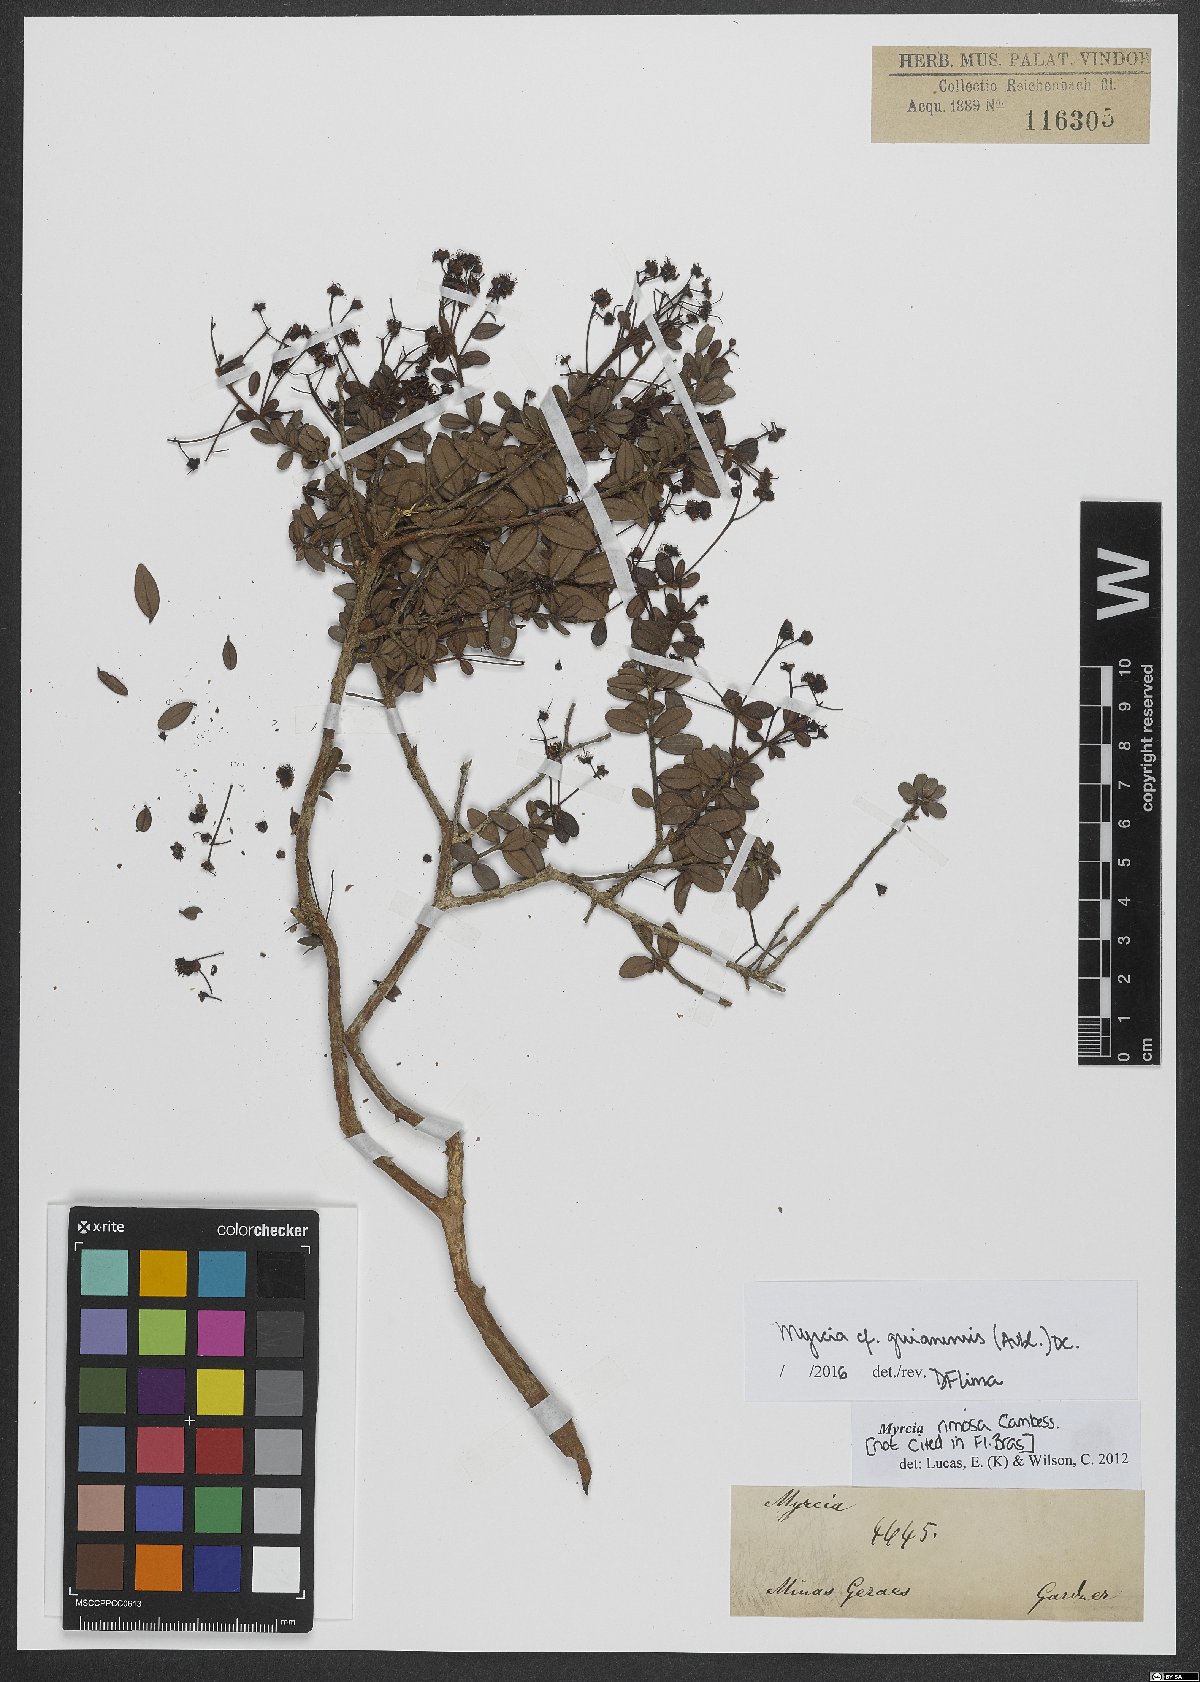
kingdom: Plantae
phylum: Tracheophyta
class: Magnoliopsida
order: Myrtales
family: Myrtaceae
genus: Myrcia
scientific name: Myrcia guianensis
